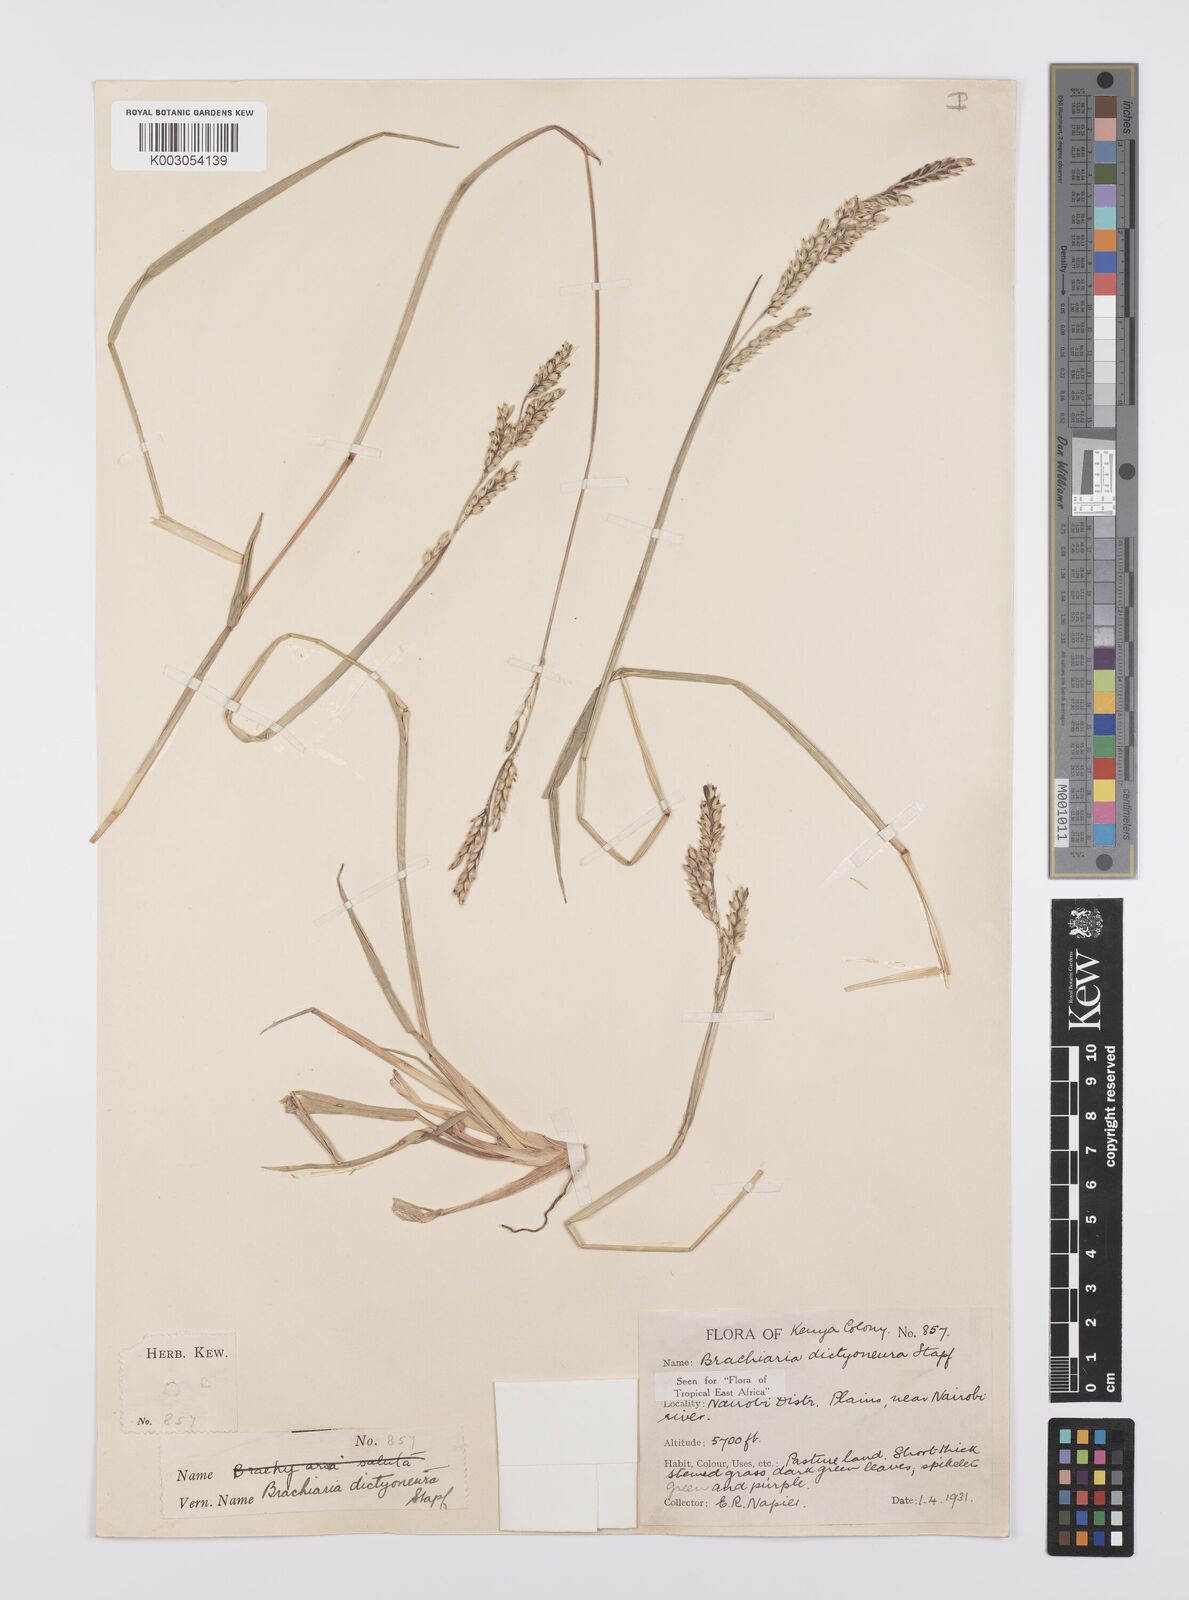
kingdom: Plantae
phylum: Tracheophyta
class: Liliopsida
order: Poales
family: Poaceae
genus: Urochloa
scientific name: Urochloa dictyoneura
